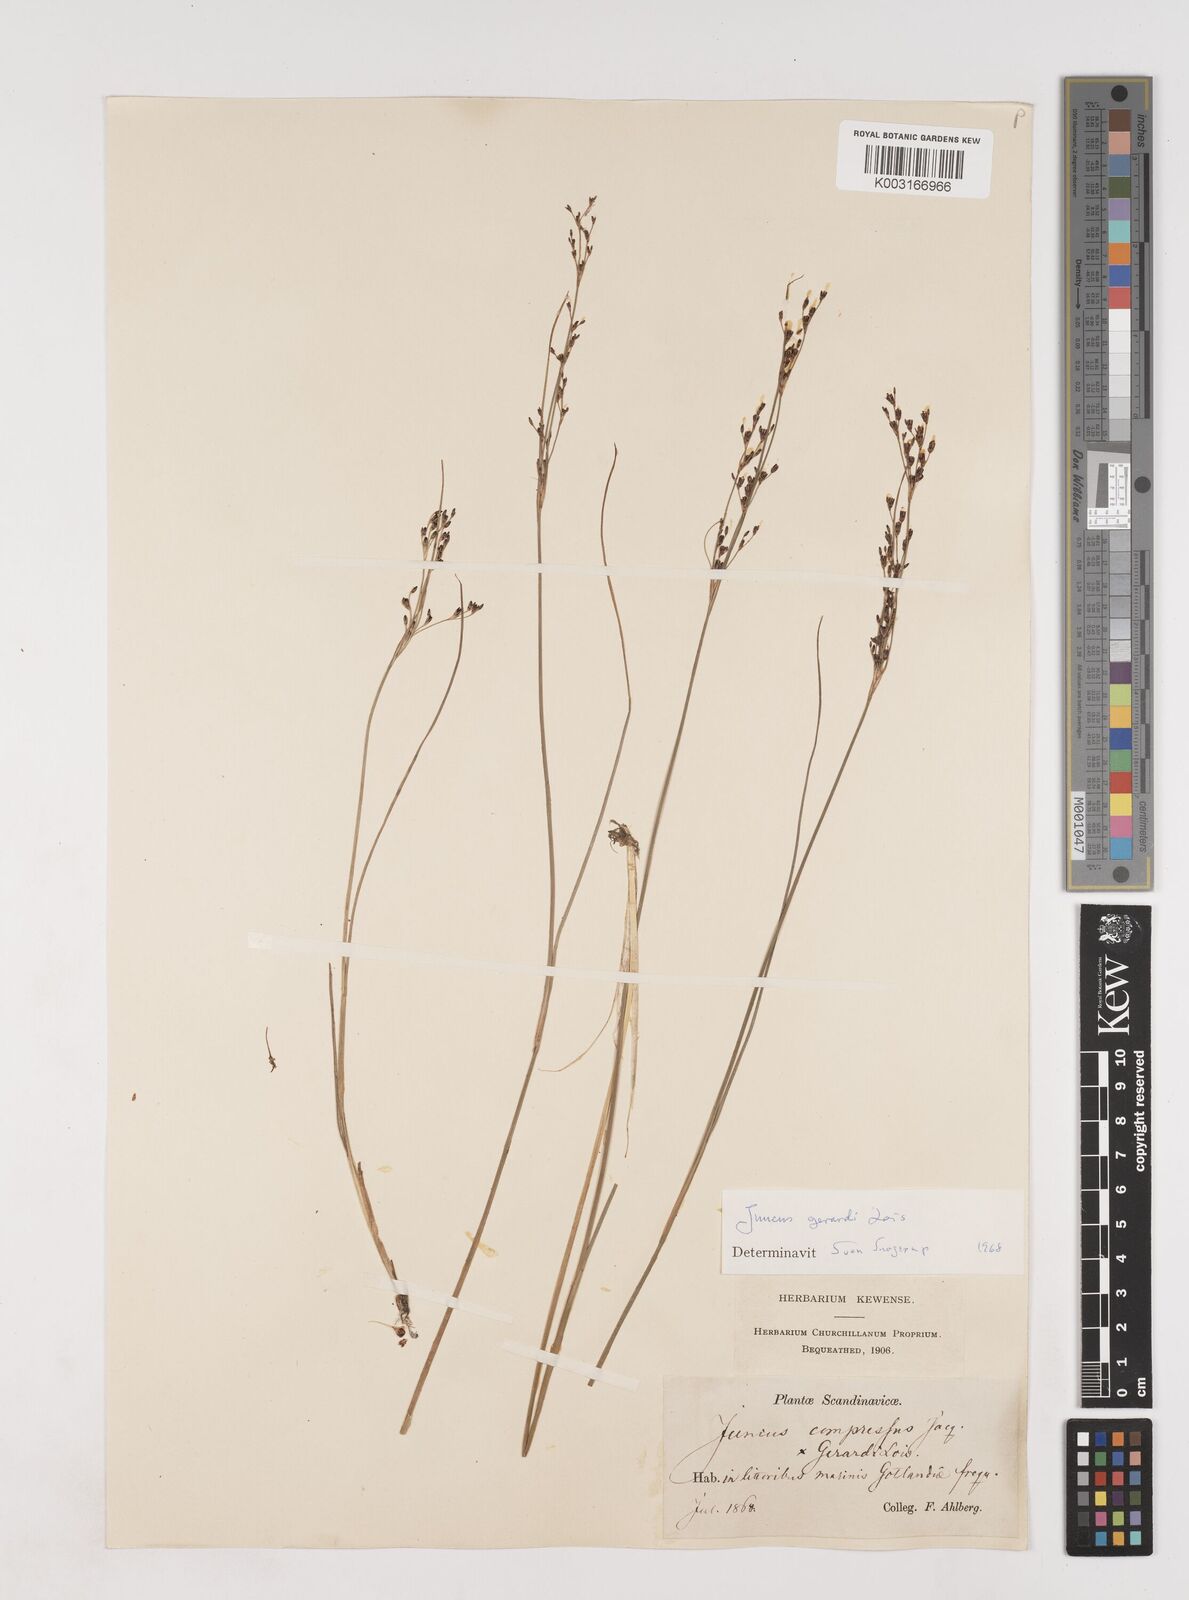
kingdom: Plantae
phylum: Tracheophyta
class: Liliopsida
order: Poales
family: Juncaceae
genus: Juncus
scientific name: Juncus gerardi
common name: Saltmarsh rush
